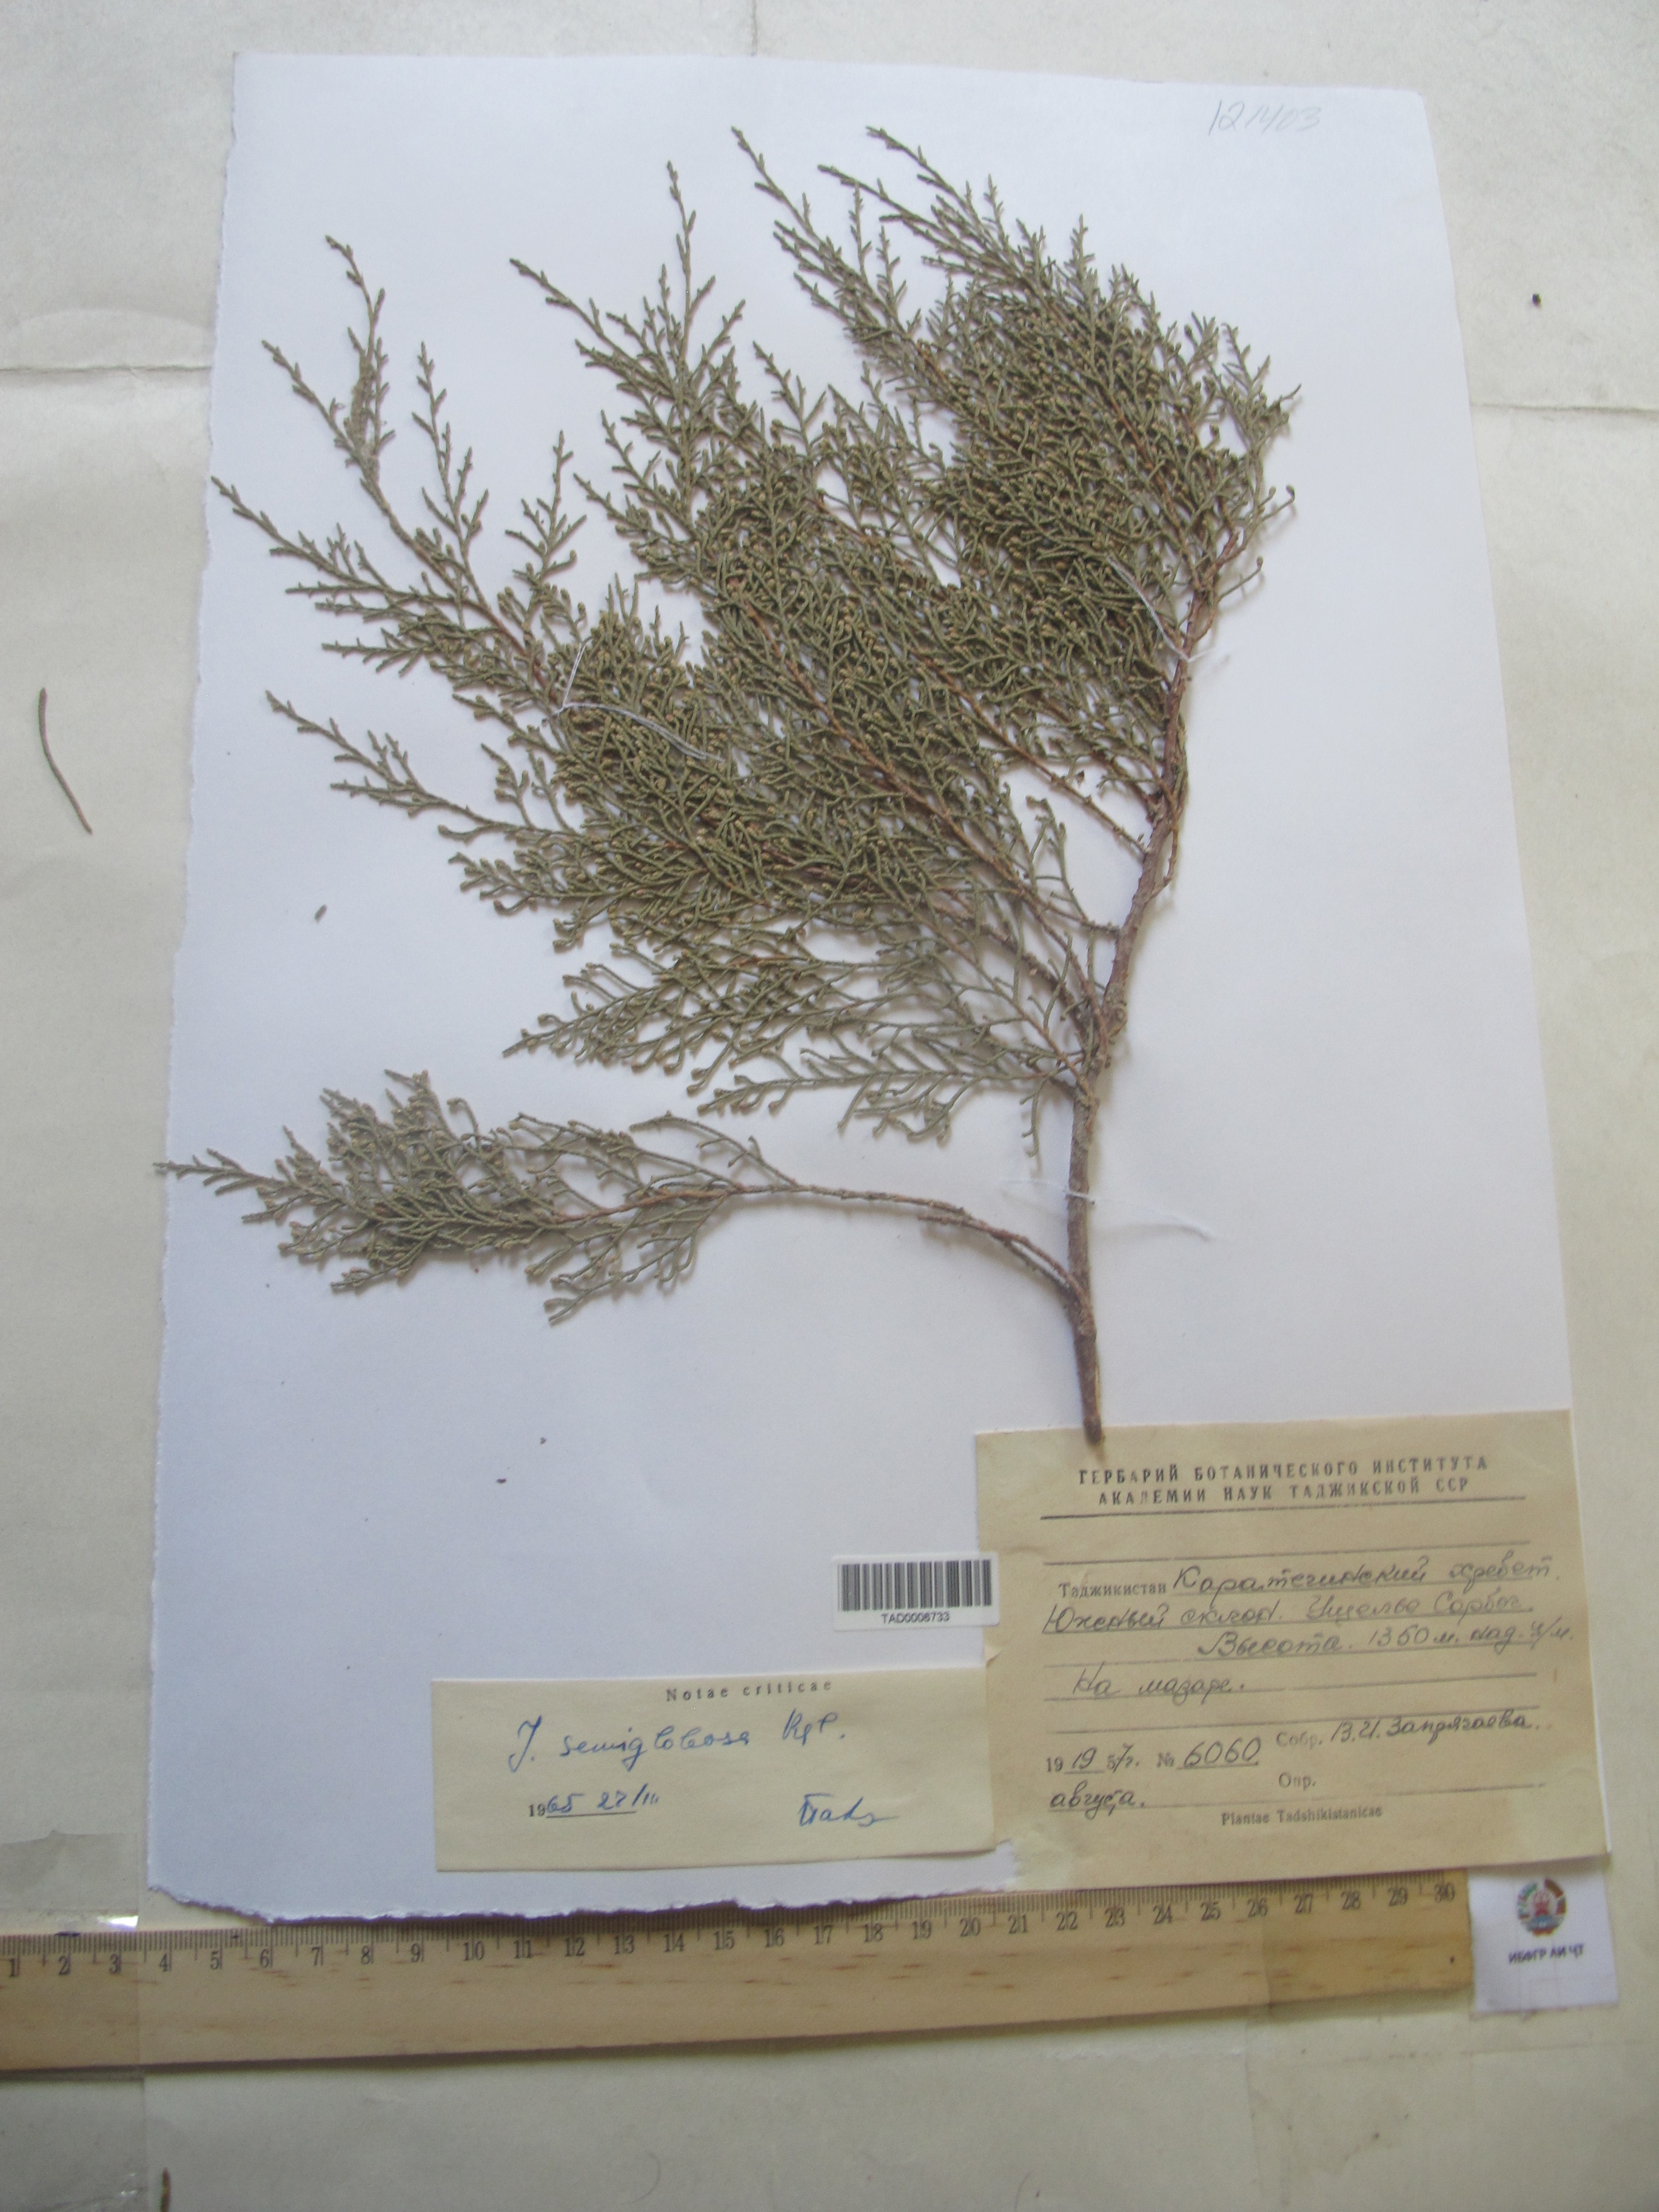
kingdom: Plantae
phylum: Tracheophyta
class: Pinopsida
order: Pinales
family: Cupressaceae
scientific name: Cupressaceae
